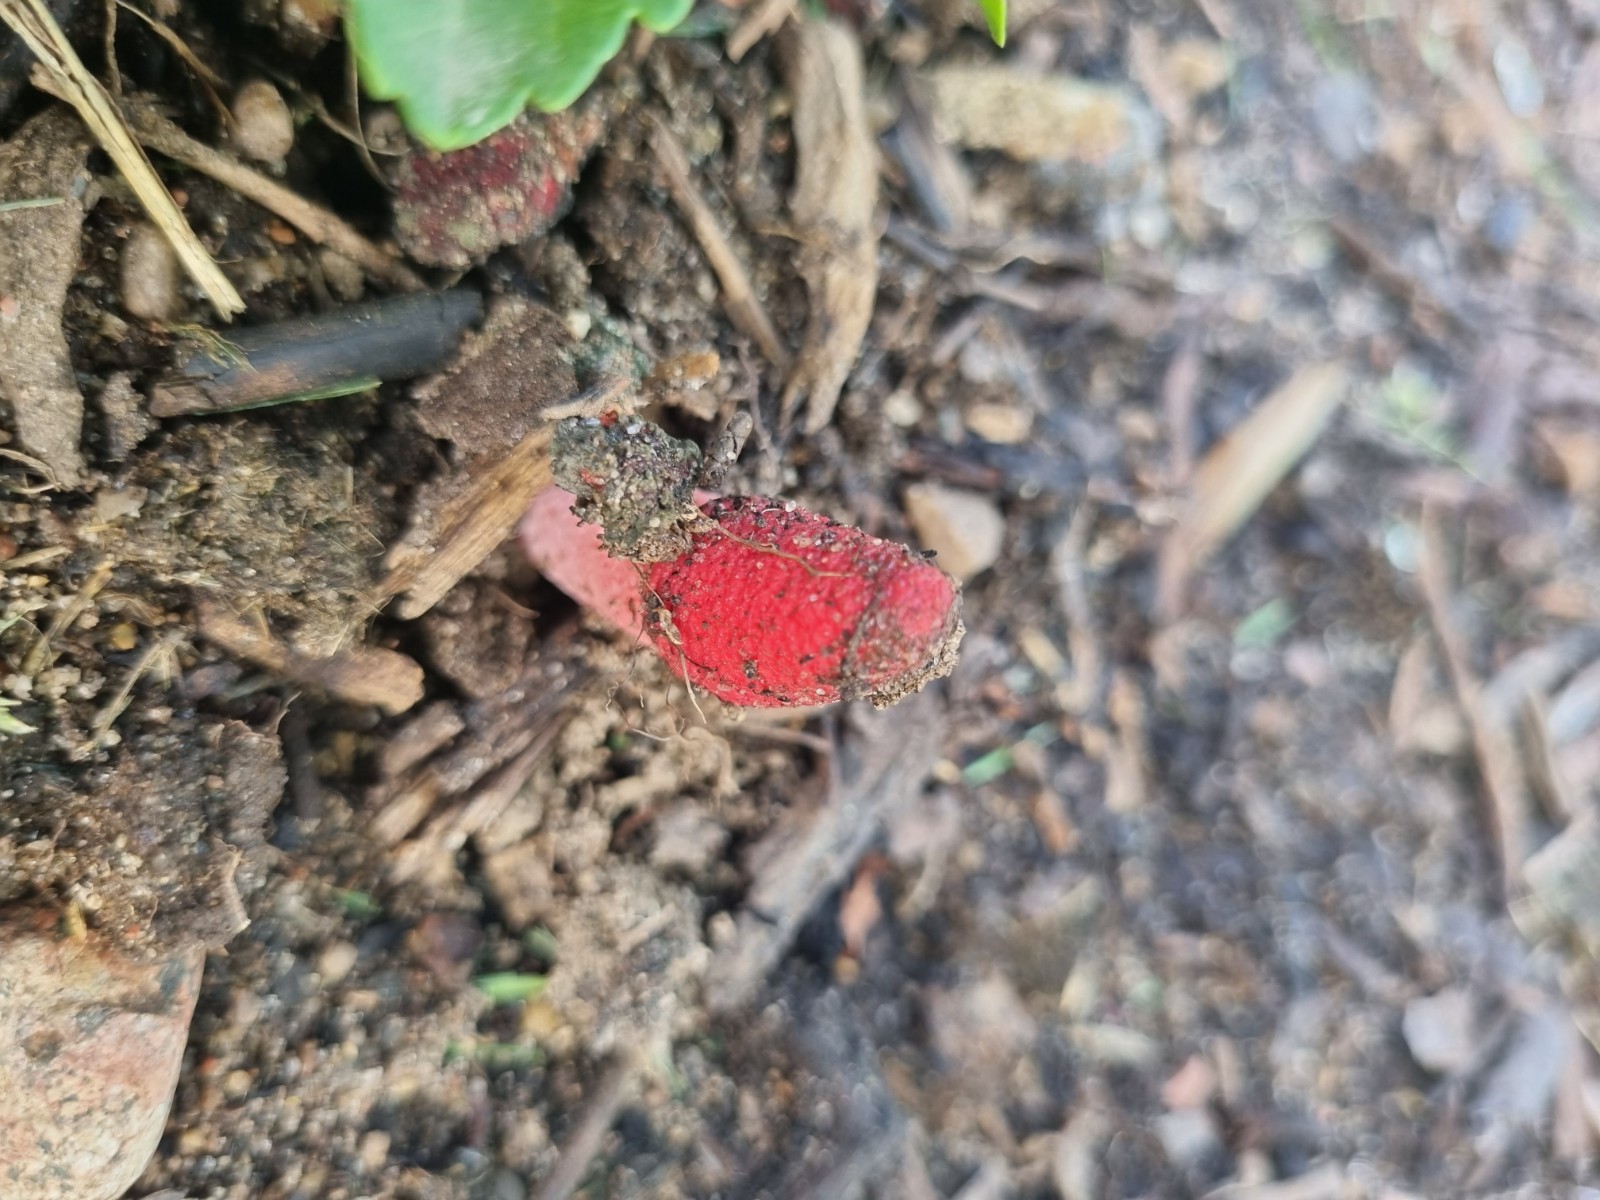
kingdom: Fungi
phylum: Basidiomycota
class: Agaricomycetes
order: Phallales
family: Phallaceae
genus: Mutinus
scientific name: Mutinus ravenelii
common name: rød stinksvamp
